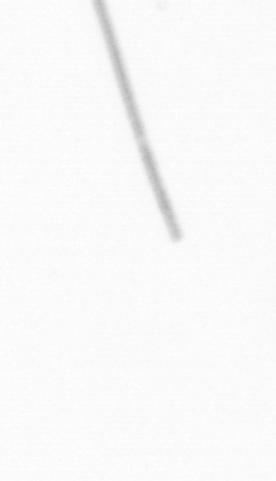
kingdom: Chromista
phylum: Ochrophyta
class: Bacillariophyceae
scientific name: Bacillariophyceae
